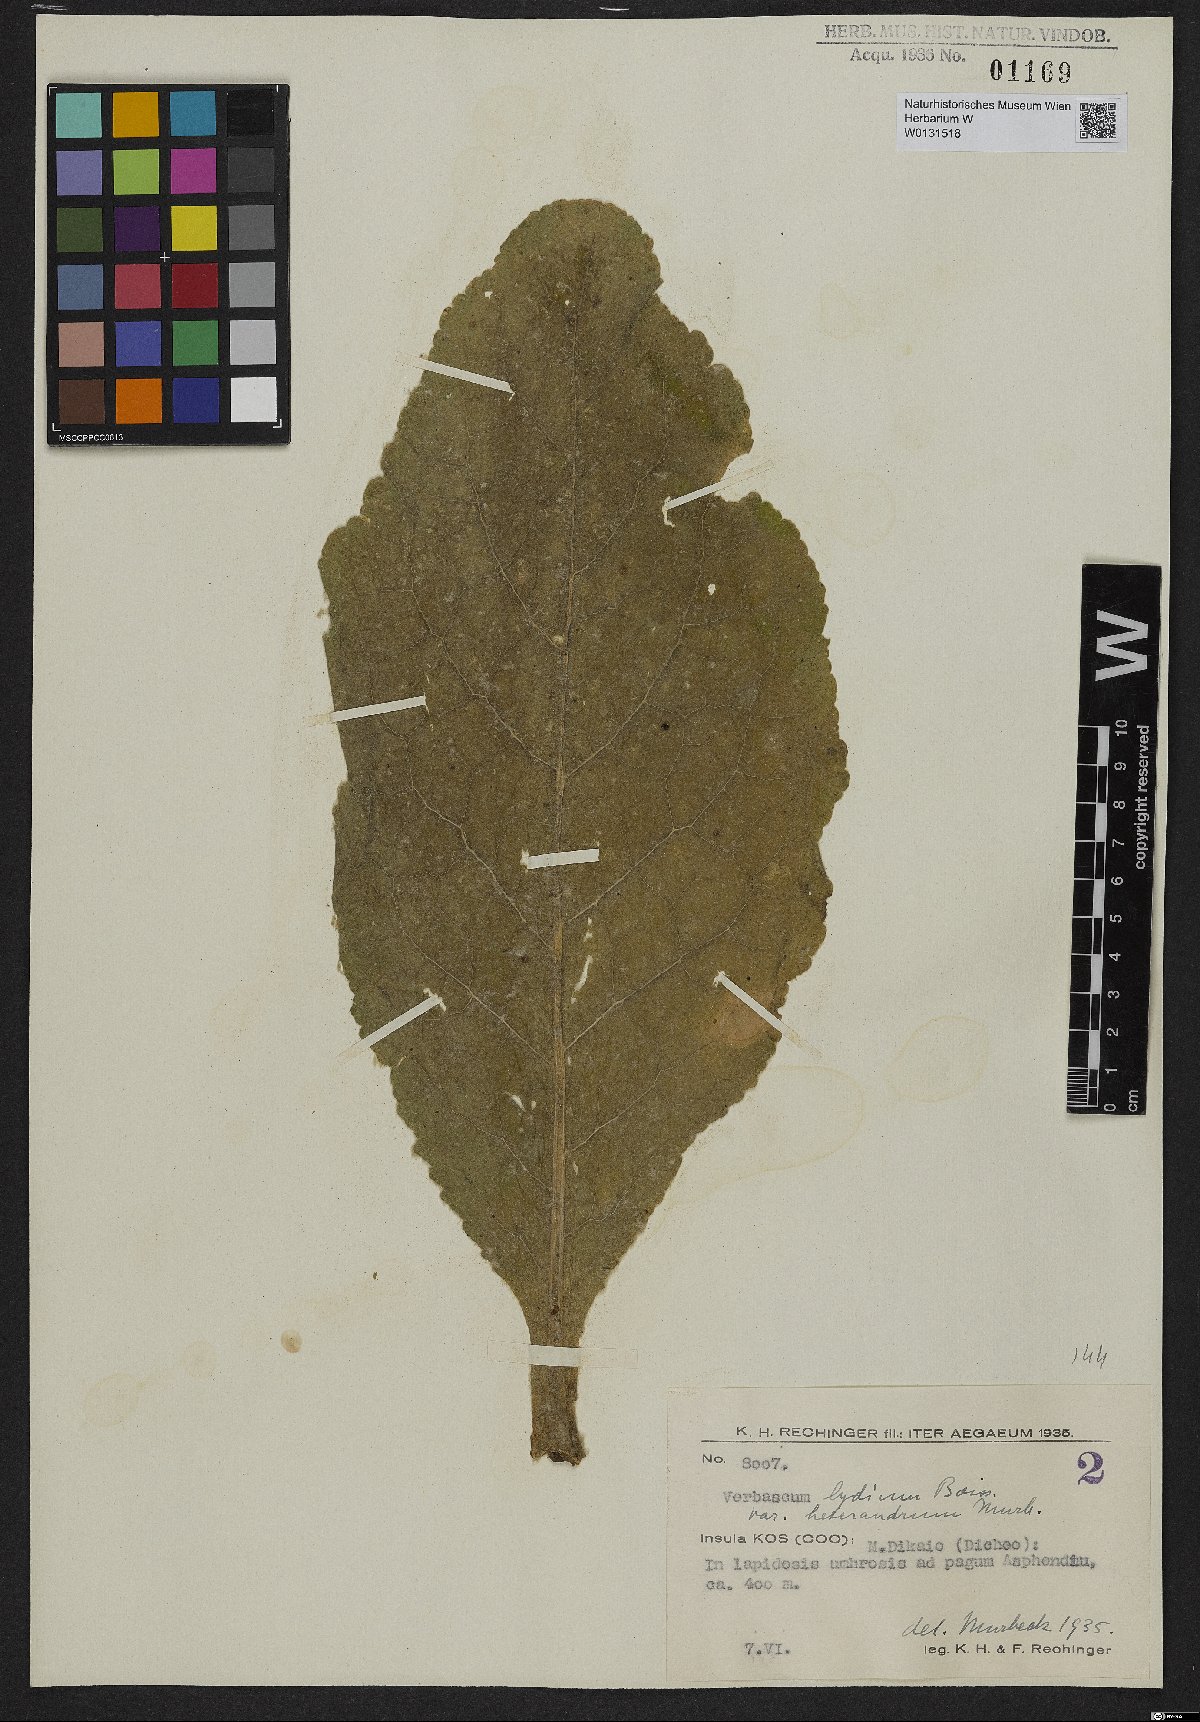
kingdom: Plantae
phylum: Tracheophyta
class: Magnoliopsida
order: Lamiales
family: Scrophulariaceae
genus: Verbascum
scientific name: Verbascum lydium
